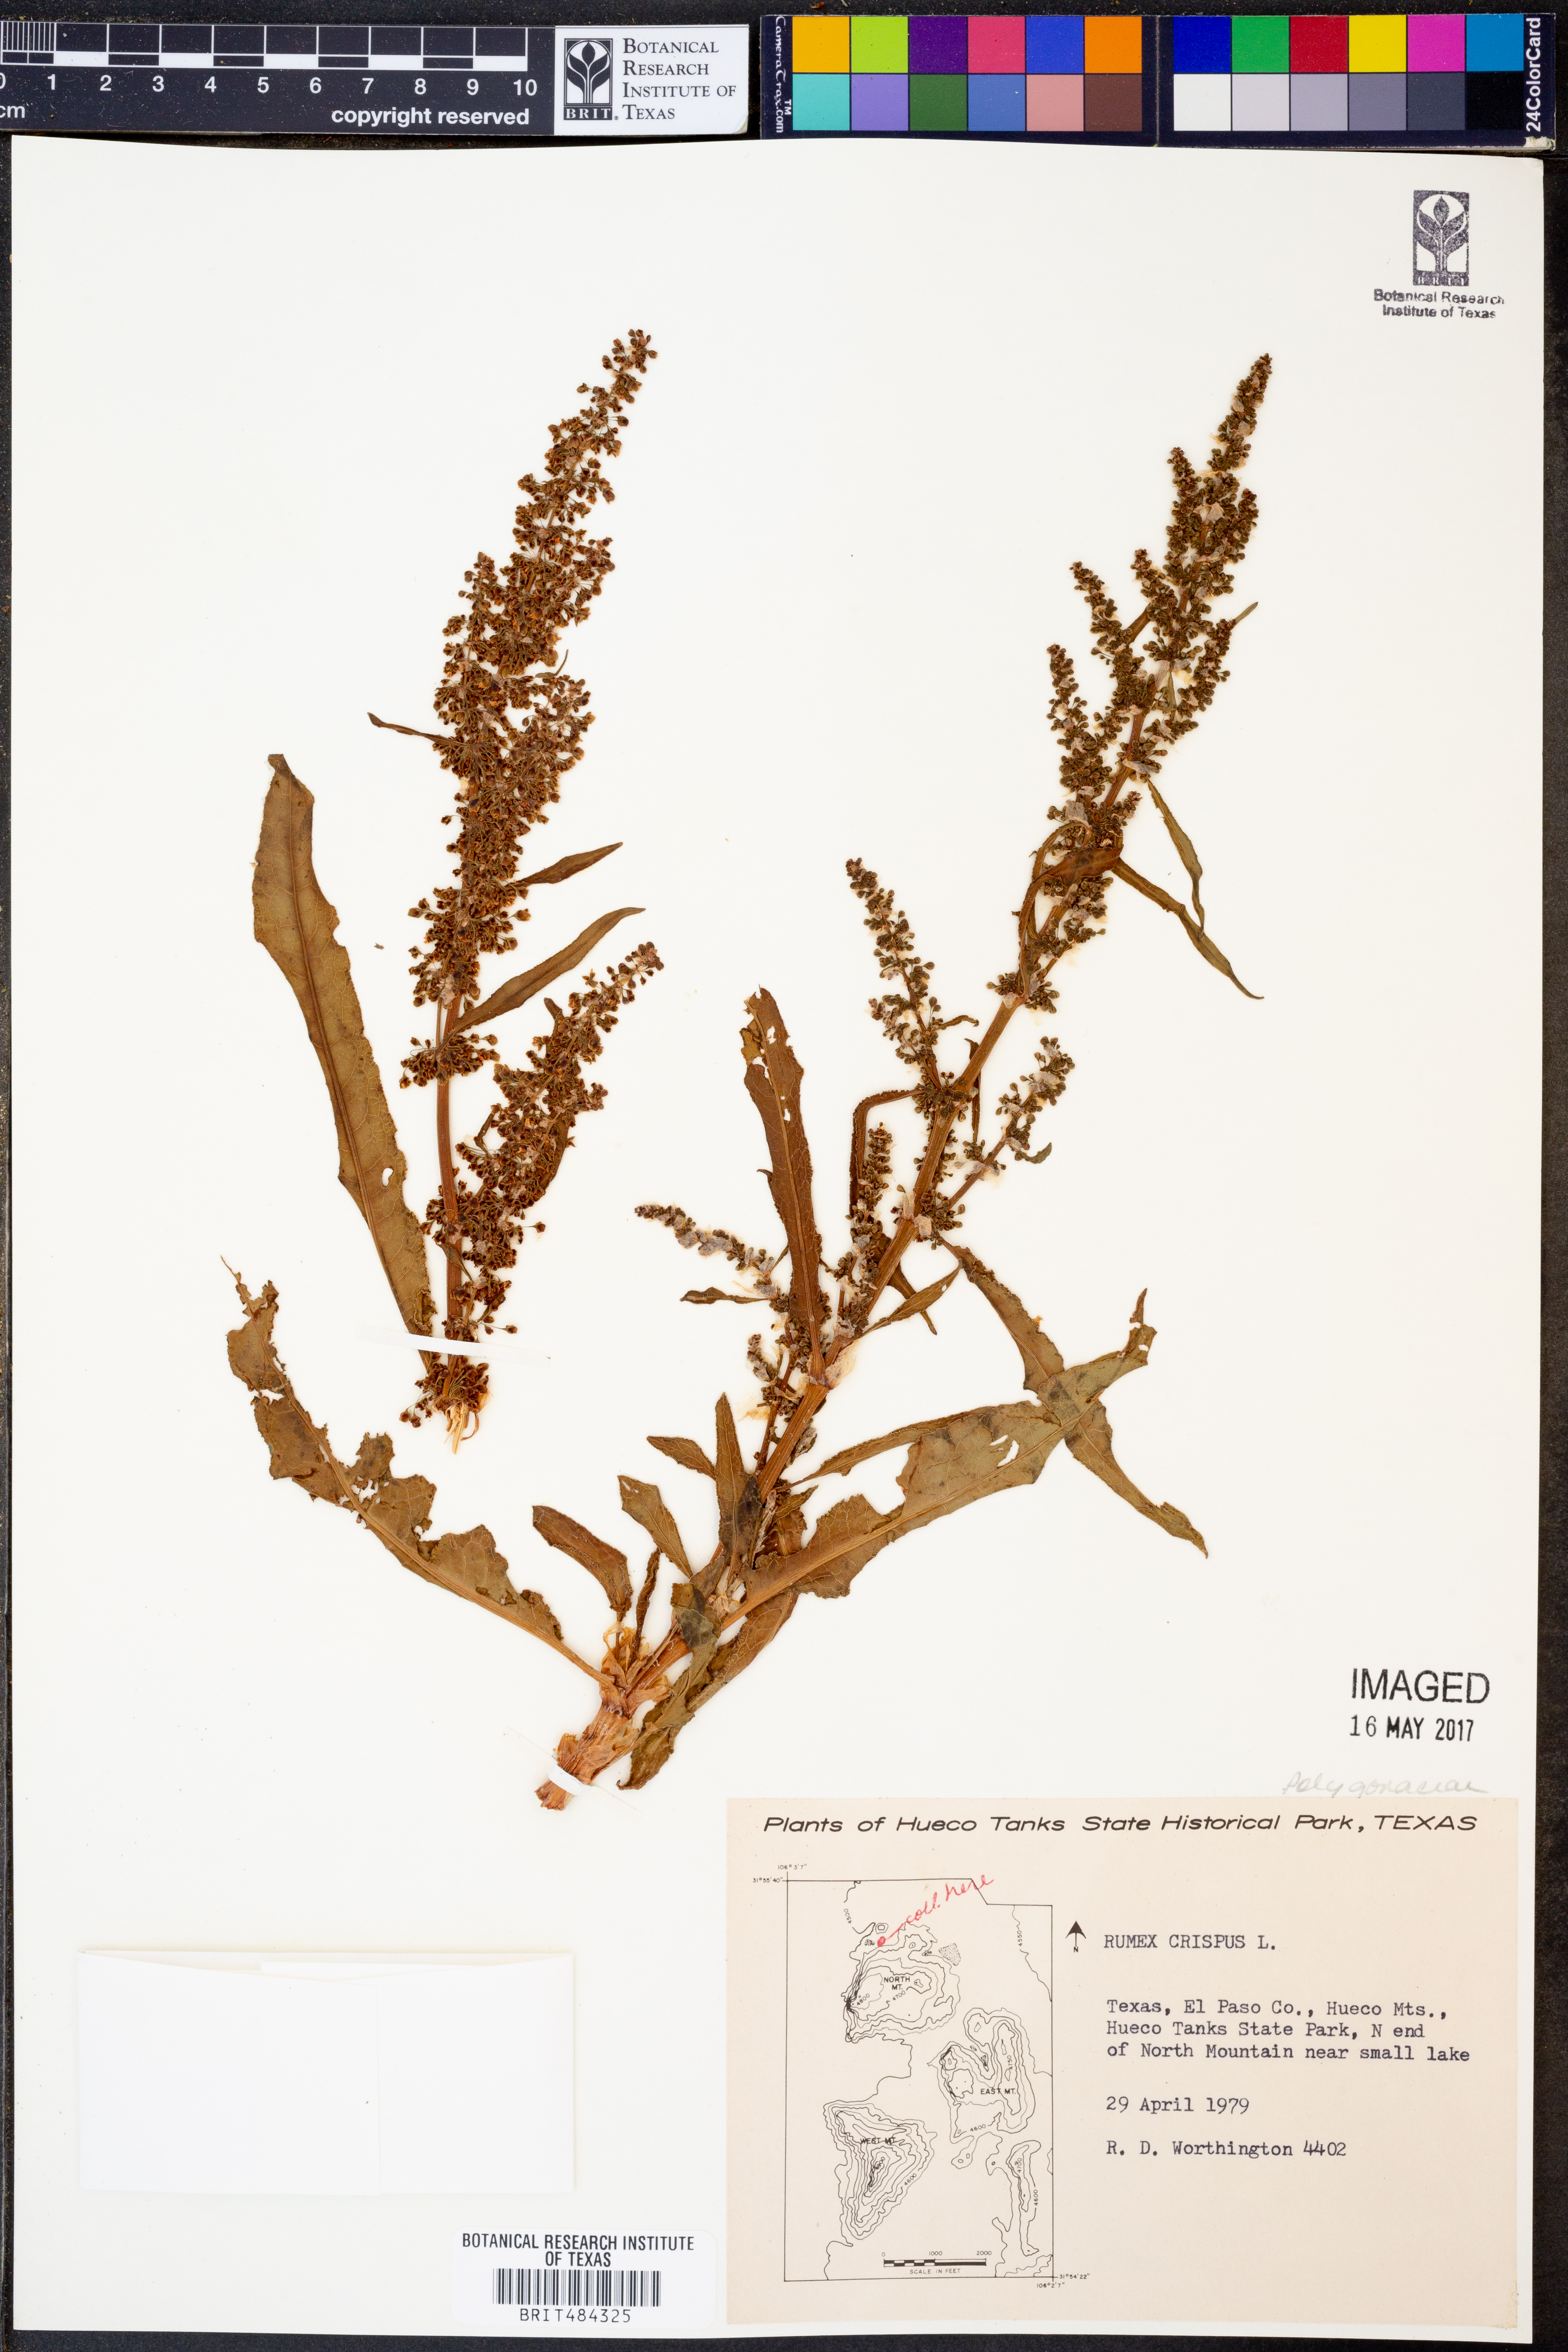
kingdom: Plantae
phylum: Tracheophyta
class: Magnoliopsida
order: Caryophyllales
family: Polygonaceae
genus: Rumex
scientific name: Rumex crispus
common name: Curled dock
